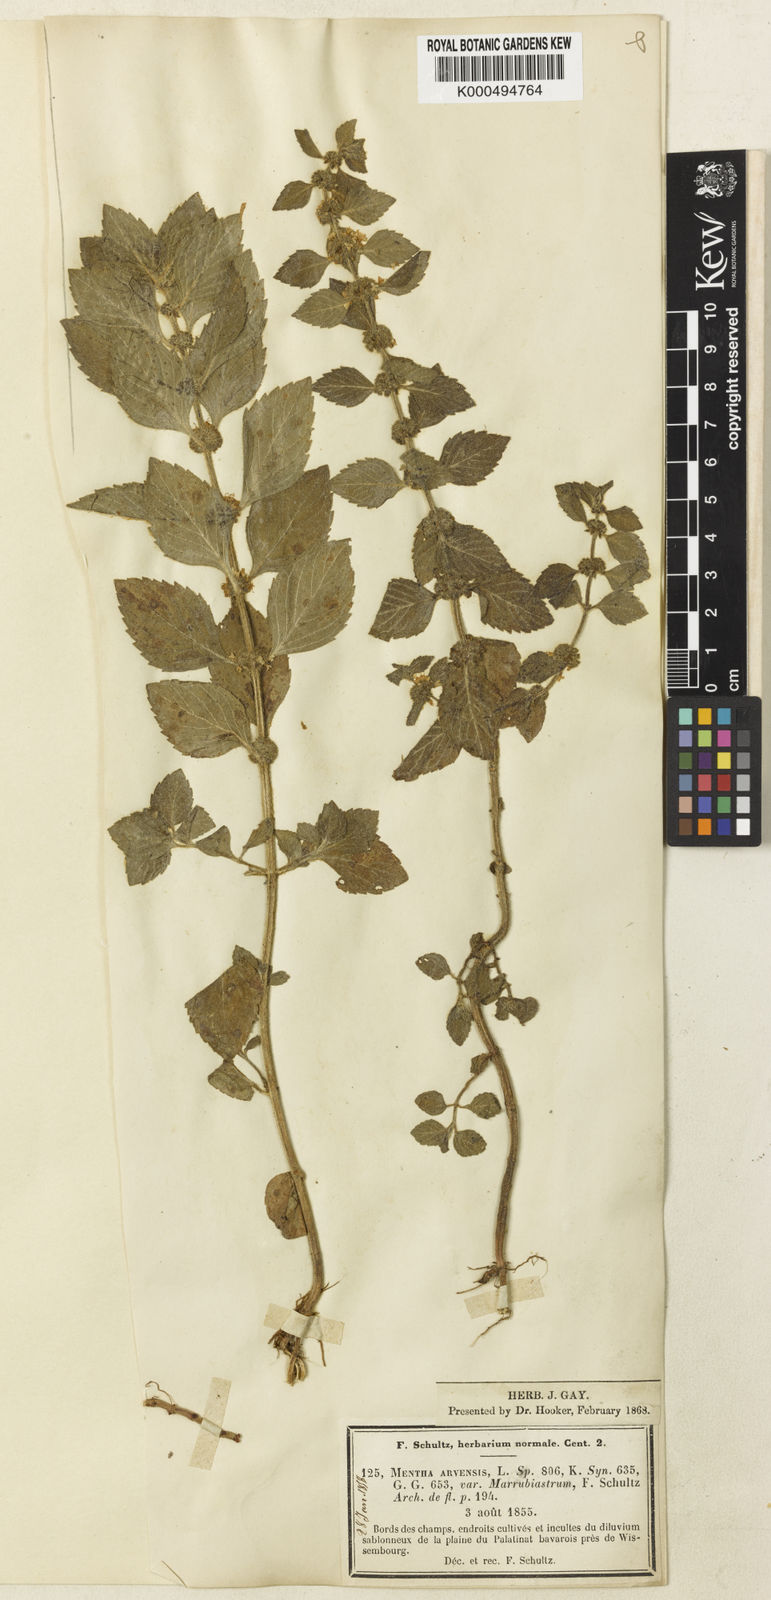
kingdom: Plantae
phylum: Tracheophyta
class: Magnoliopsida
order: Lamiales
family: Lamiaceae
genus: Mentha
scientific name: Mentha arvensis
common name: Corn mint
